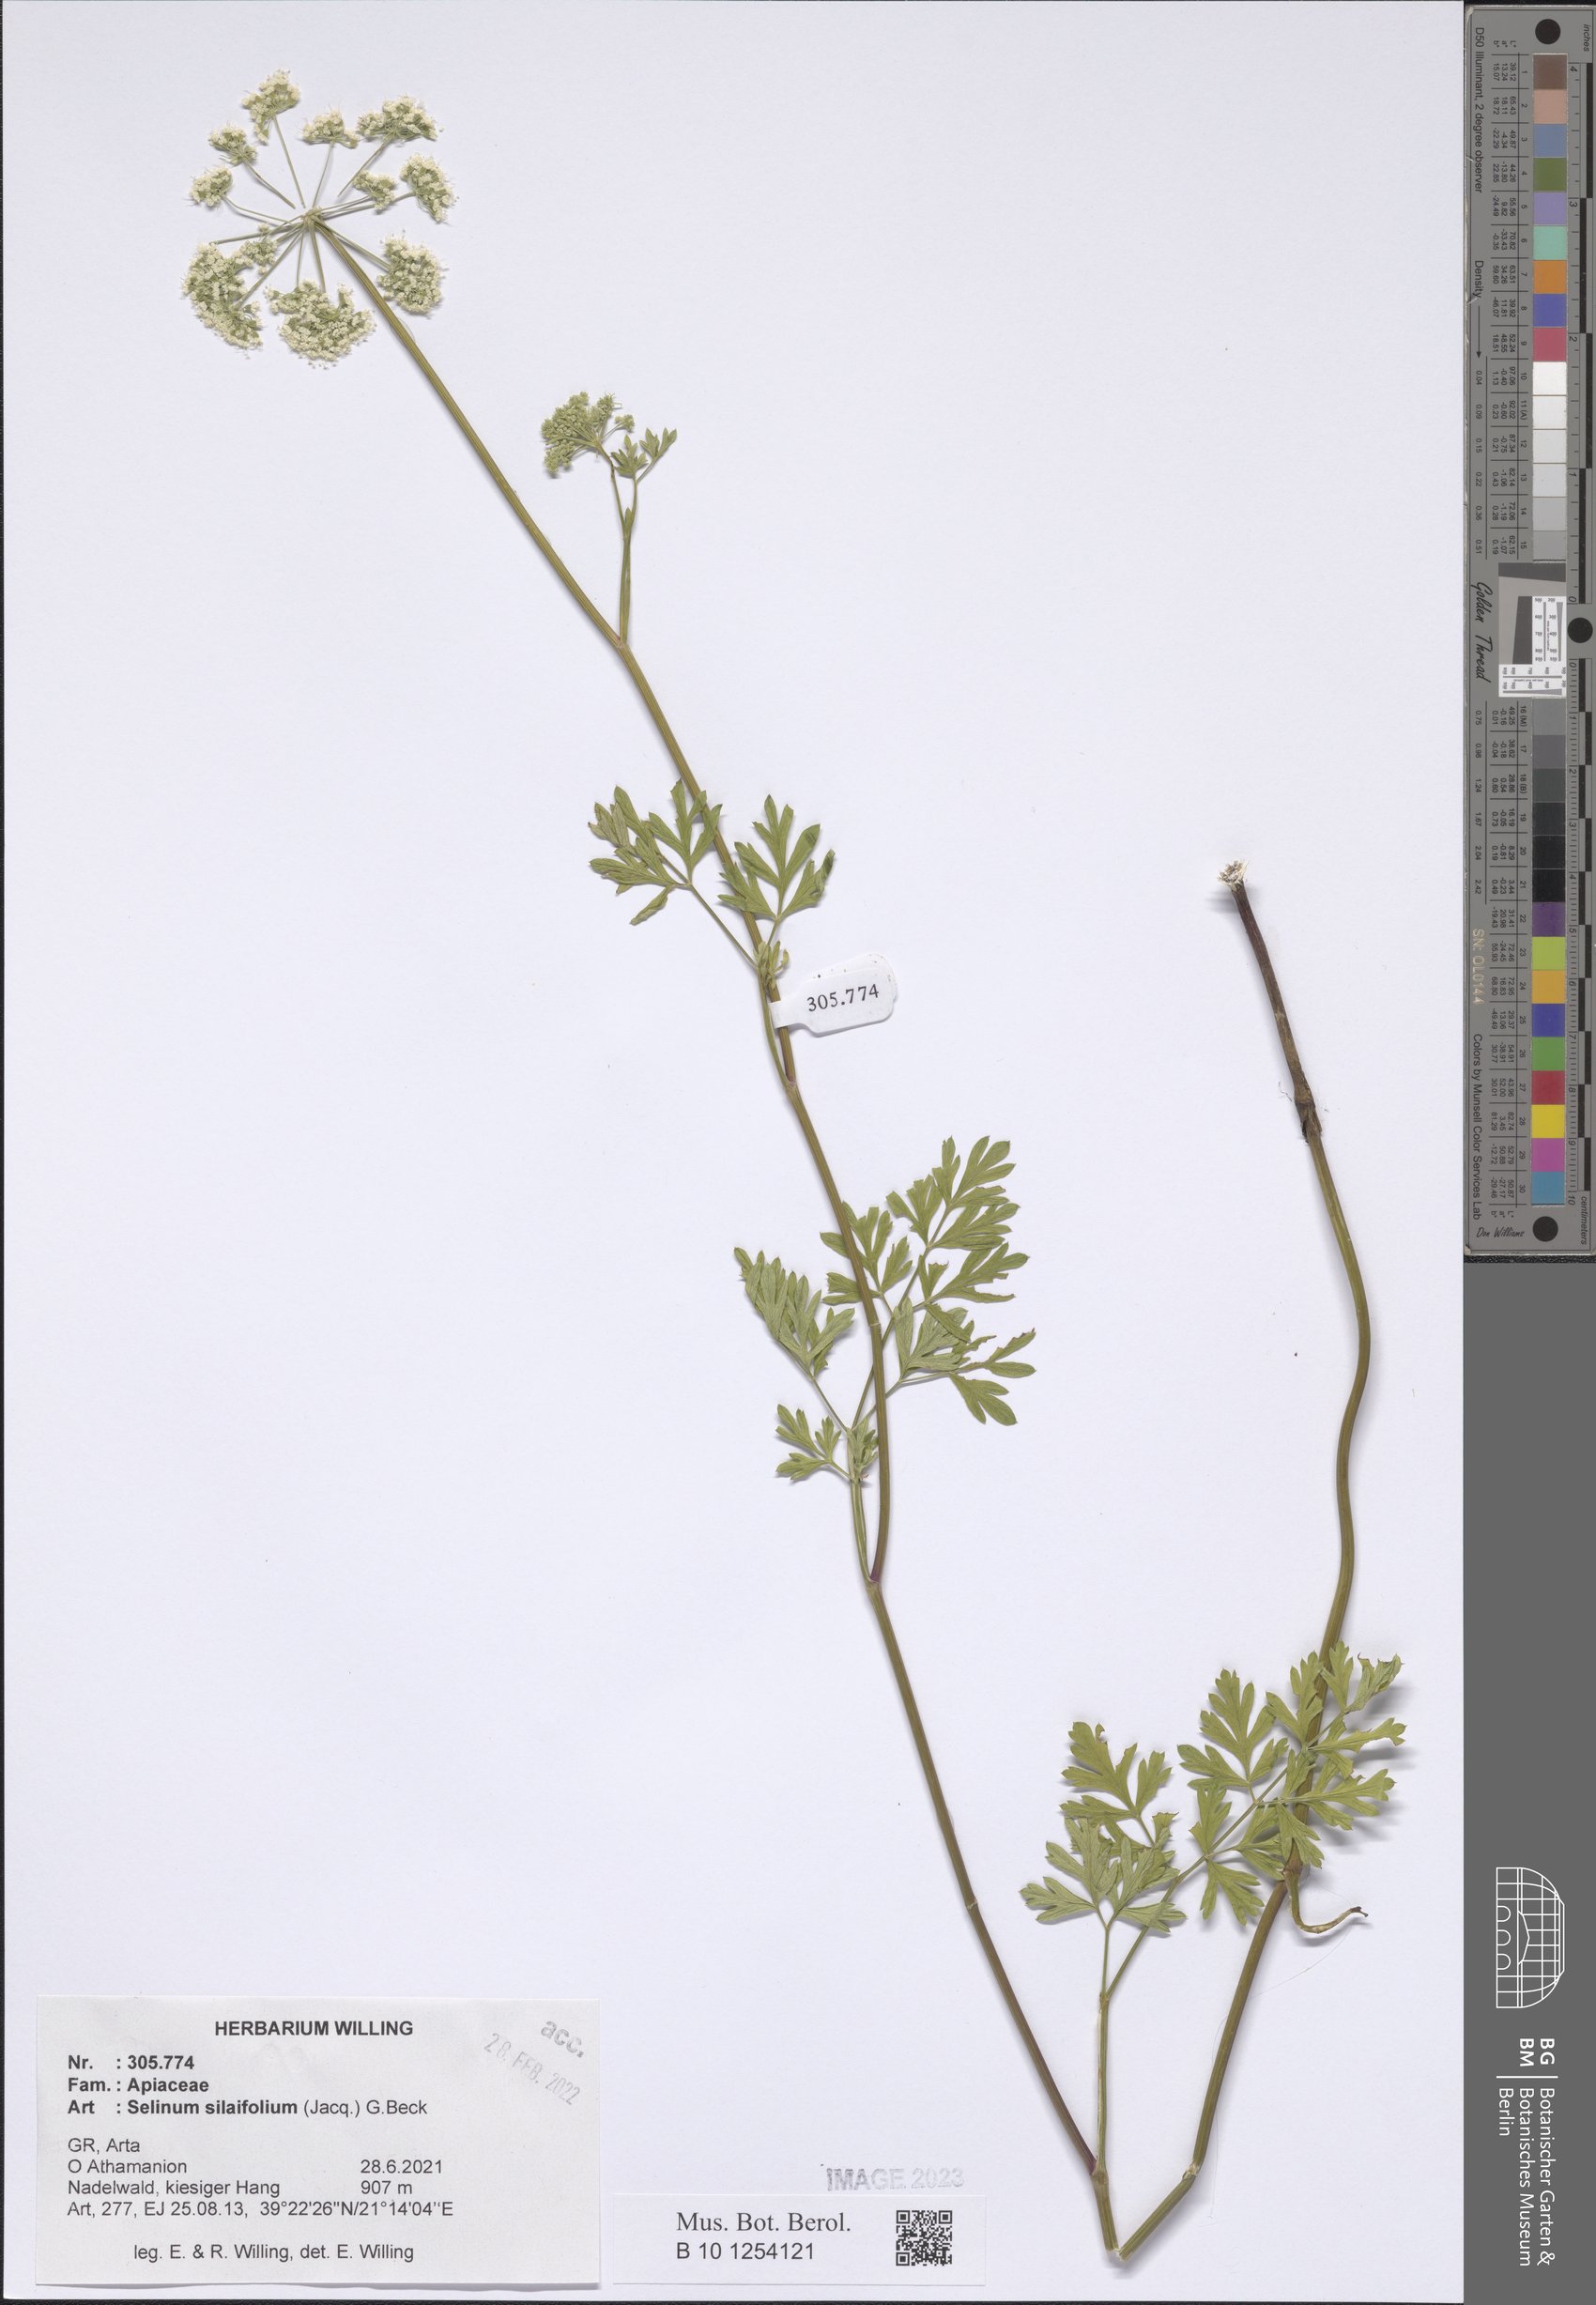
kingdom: Plantae
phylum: Tracheophyta
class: Magnoliopsida
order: Apiales
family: Apiaceae
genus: Katapsuxis
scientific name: Katapsuxis silaifolia
